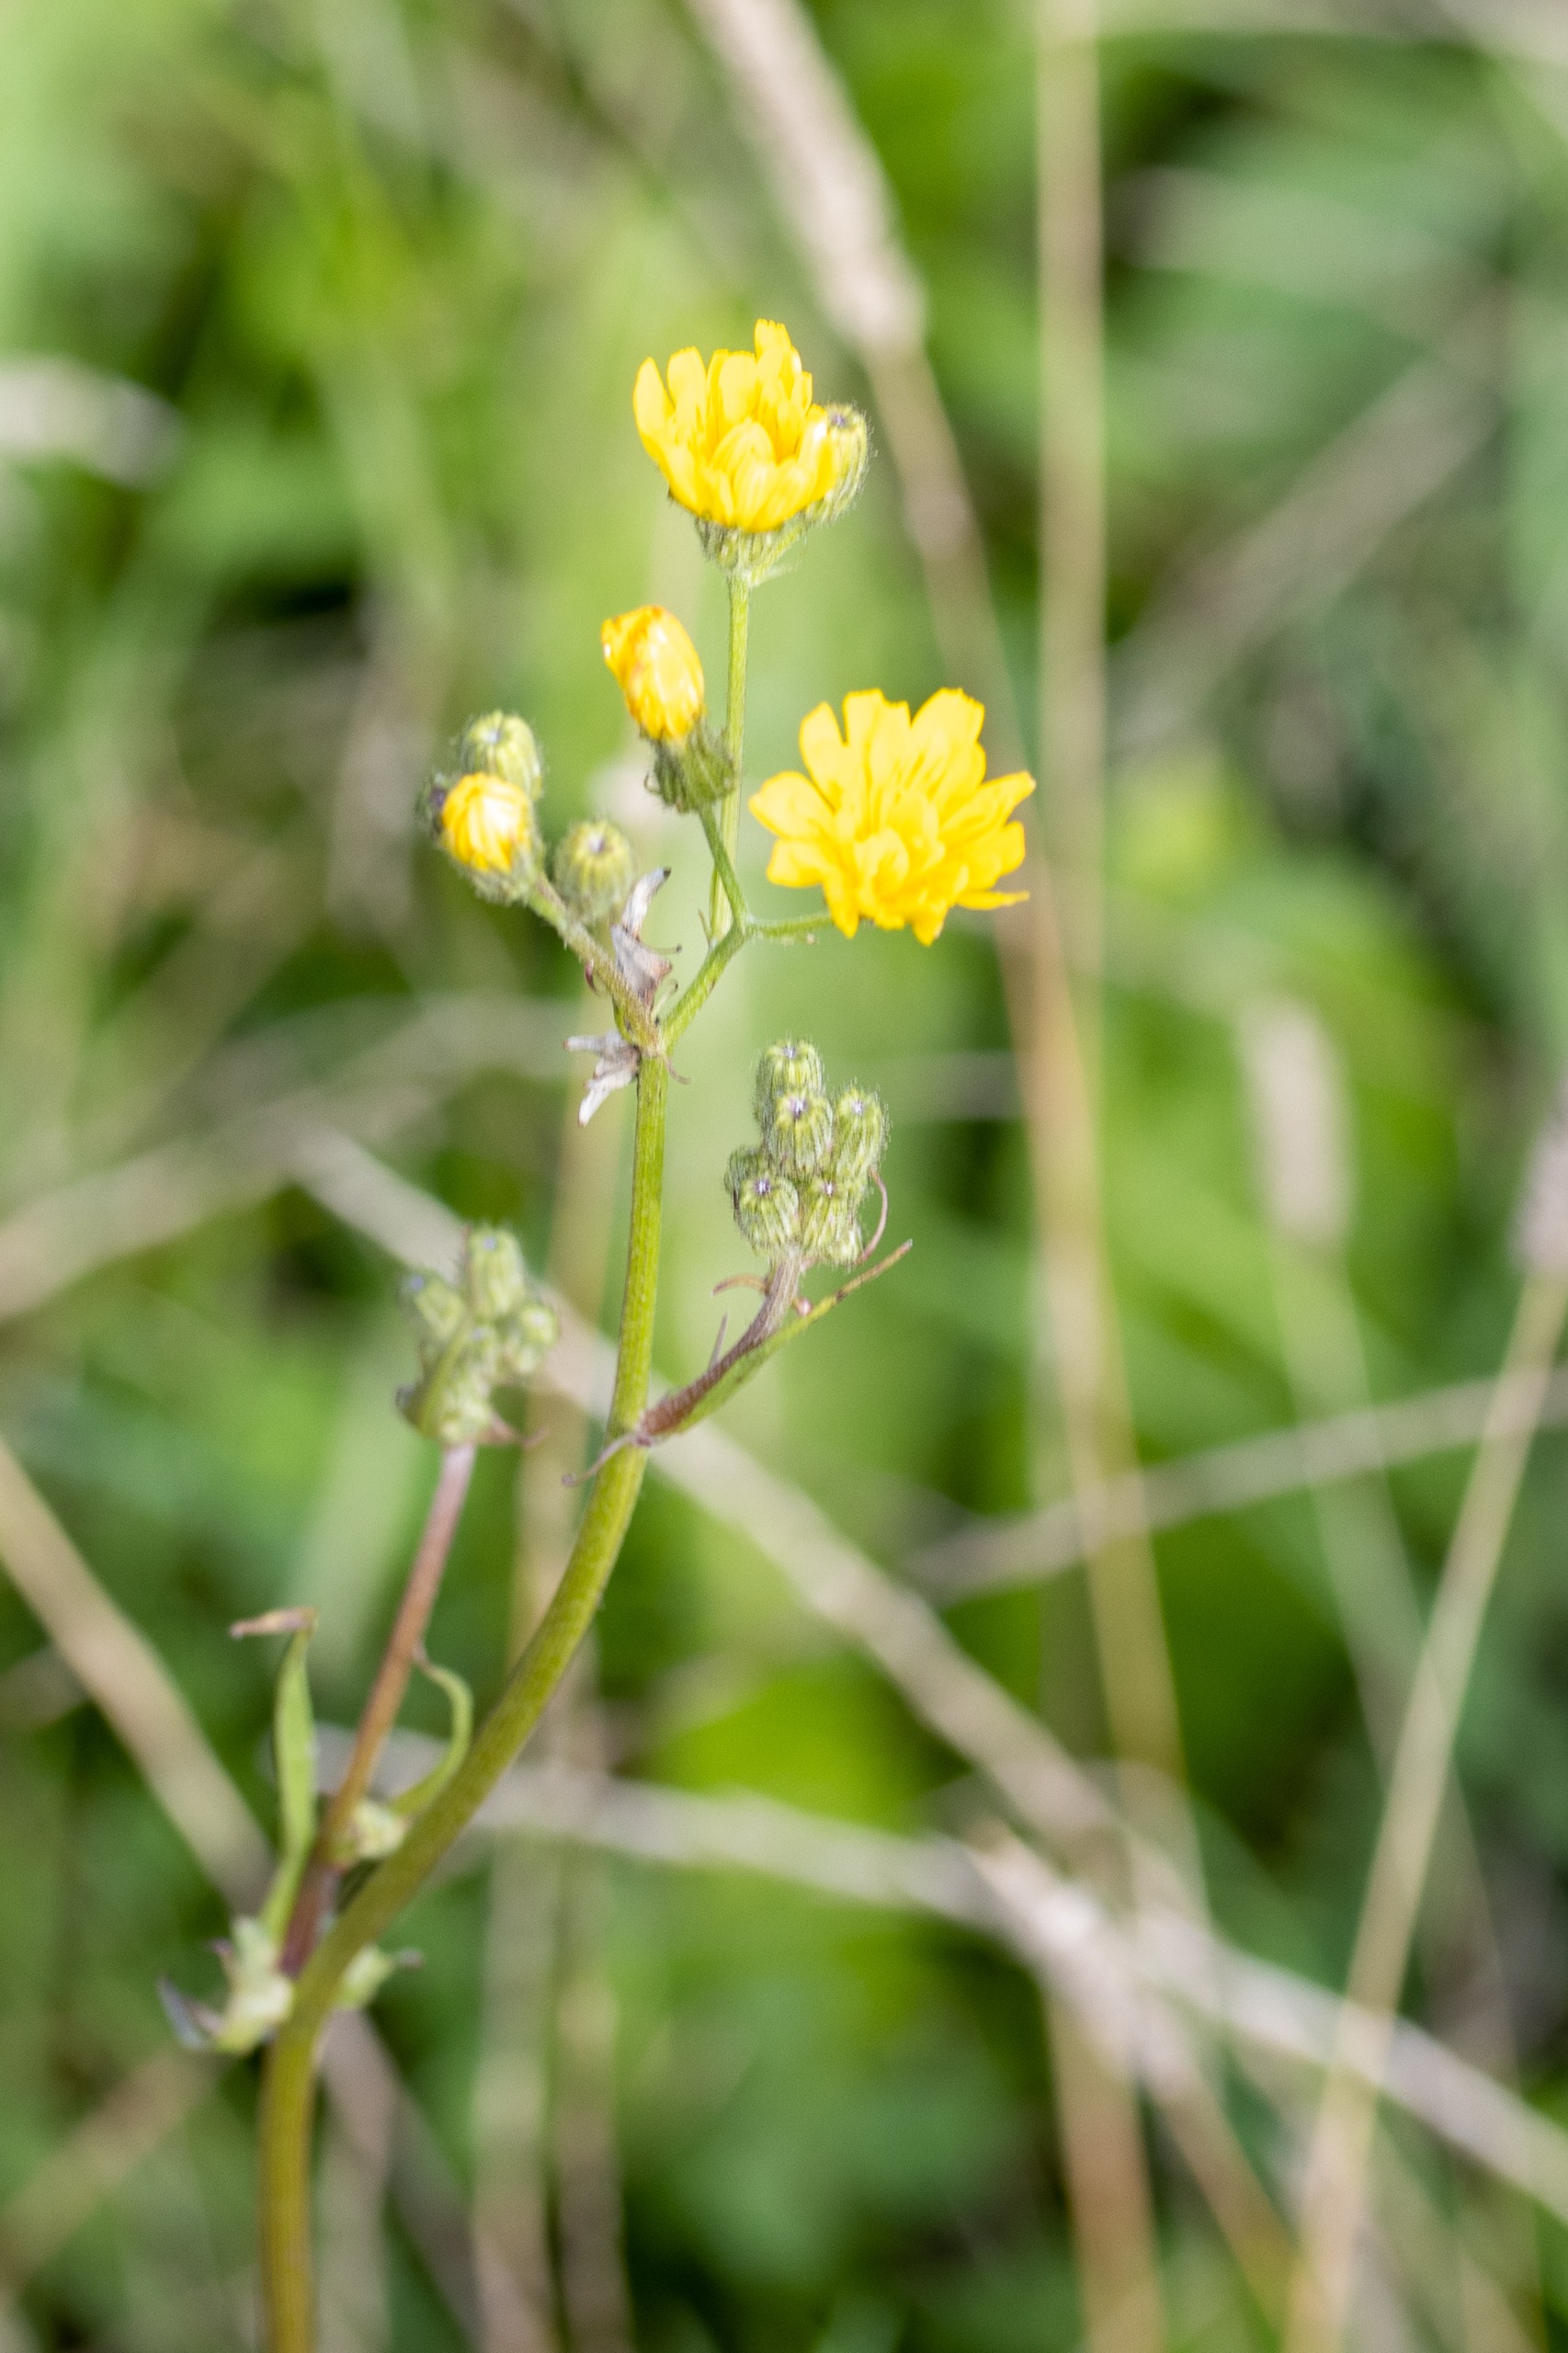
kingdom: Plantae
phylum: Tracheophyta
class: Magnoliopsida
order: Asterales
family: Asteraceae
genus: Crepis
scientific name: Crepis
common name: Høgeskægslægten
